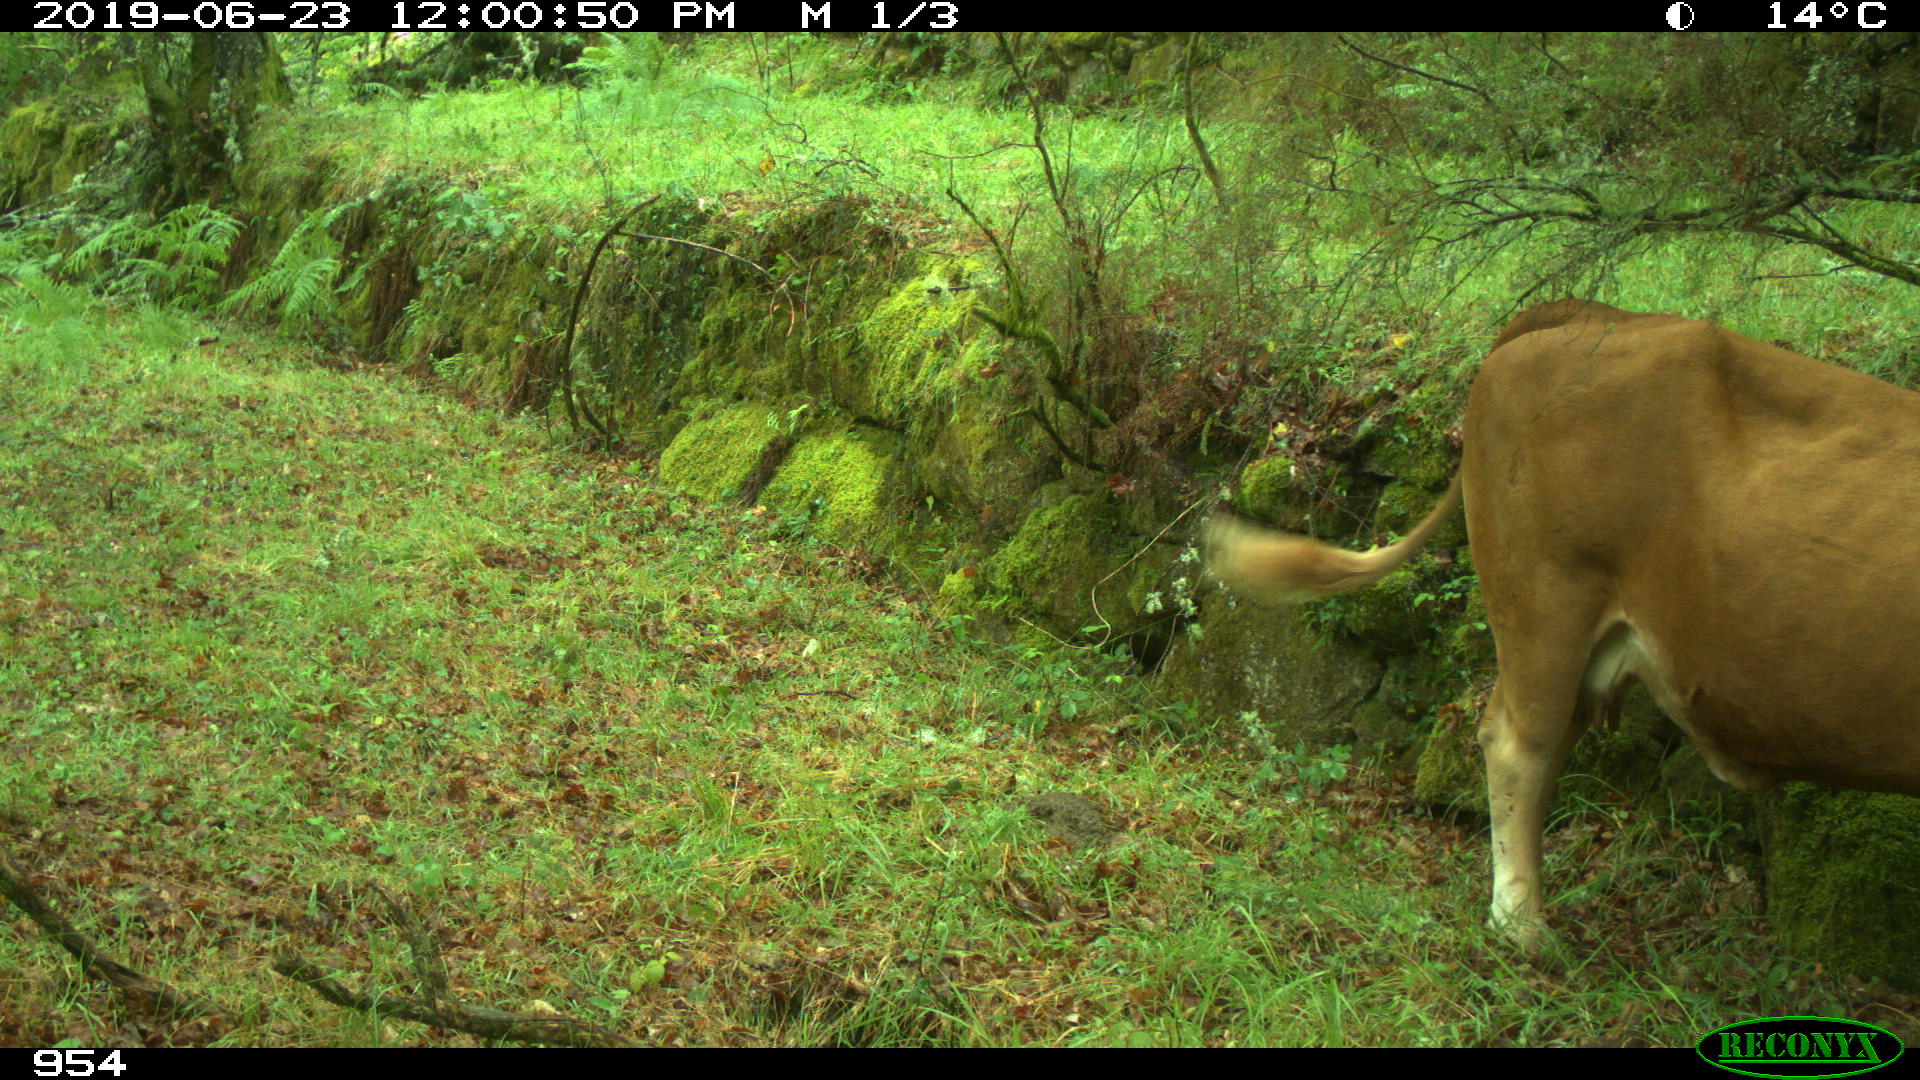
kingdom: Animalia
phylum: Chordata
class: Mammalia
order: Artiodactyla
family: Bovidae
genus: Bos
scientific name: Bos taurus
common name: Domesticated cattle
